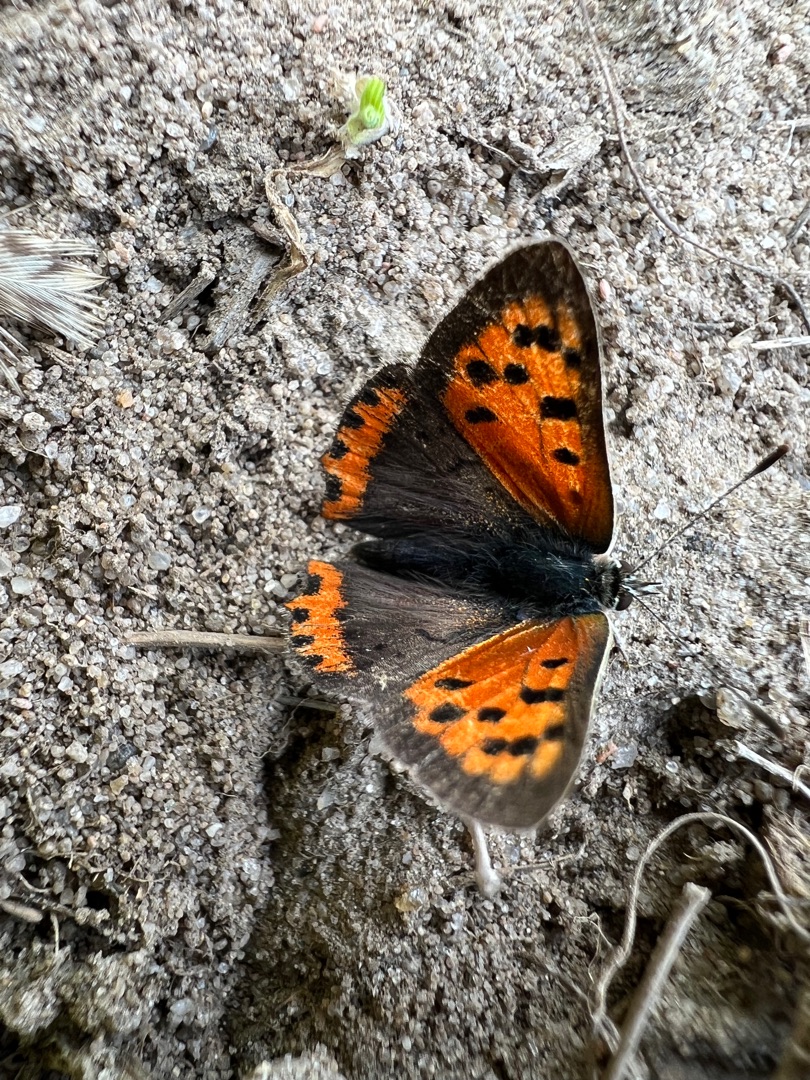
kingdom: Animalia
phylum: Arthropoda
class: Insecta
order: Lepidoptera
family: Lycaenidae
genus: Lycaena
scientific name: Lycaena phlaeas
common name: Lille ildfugl
